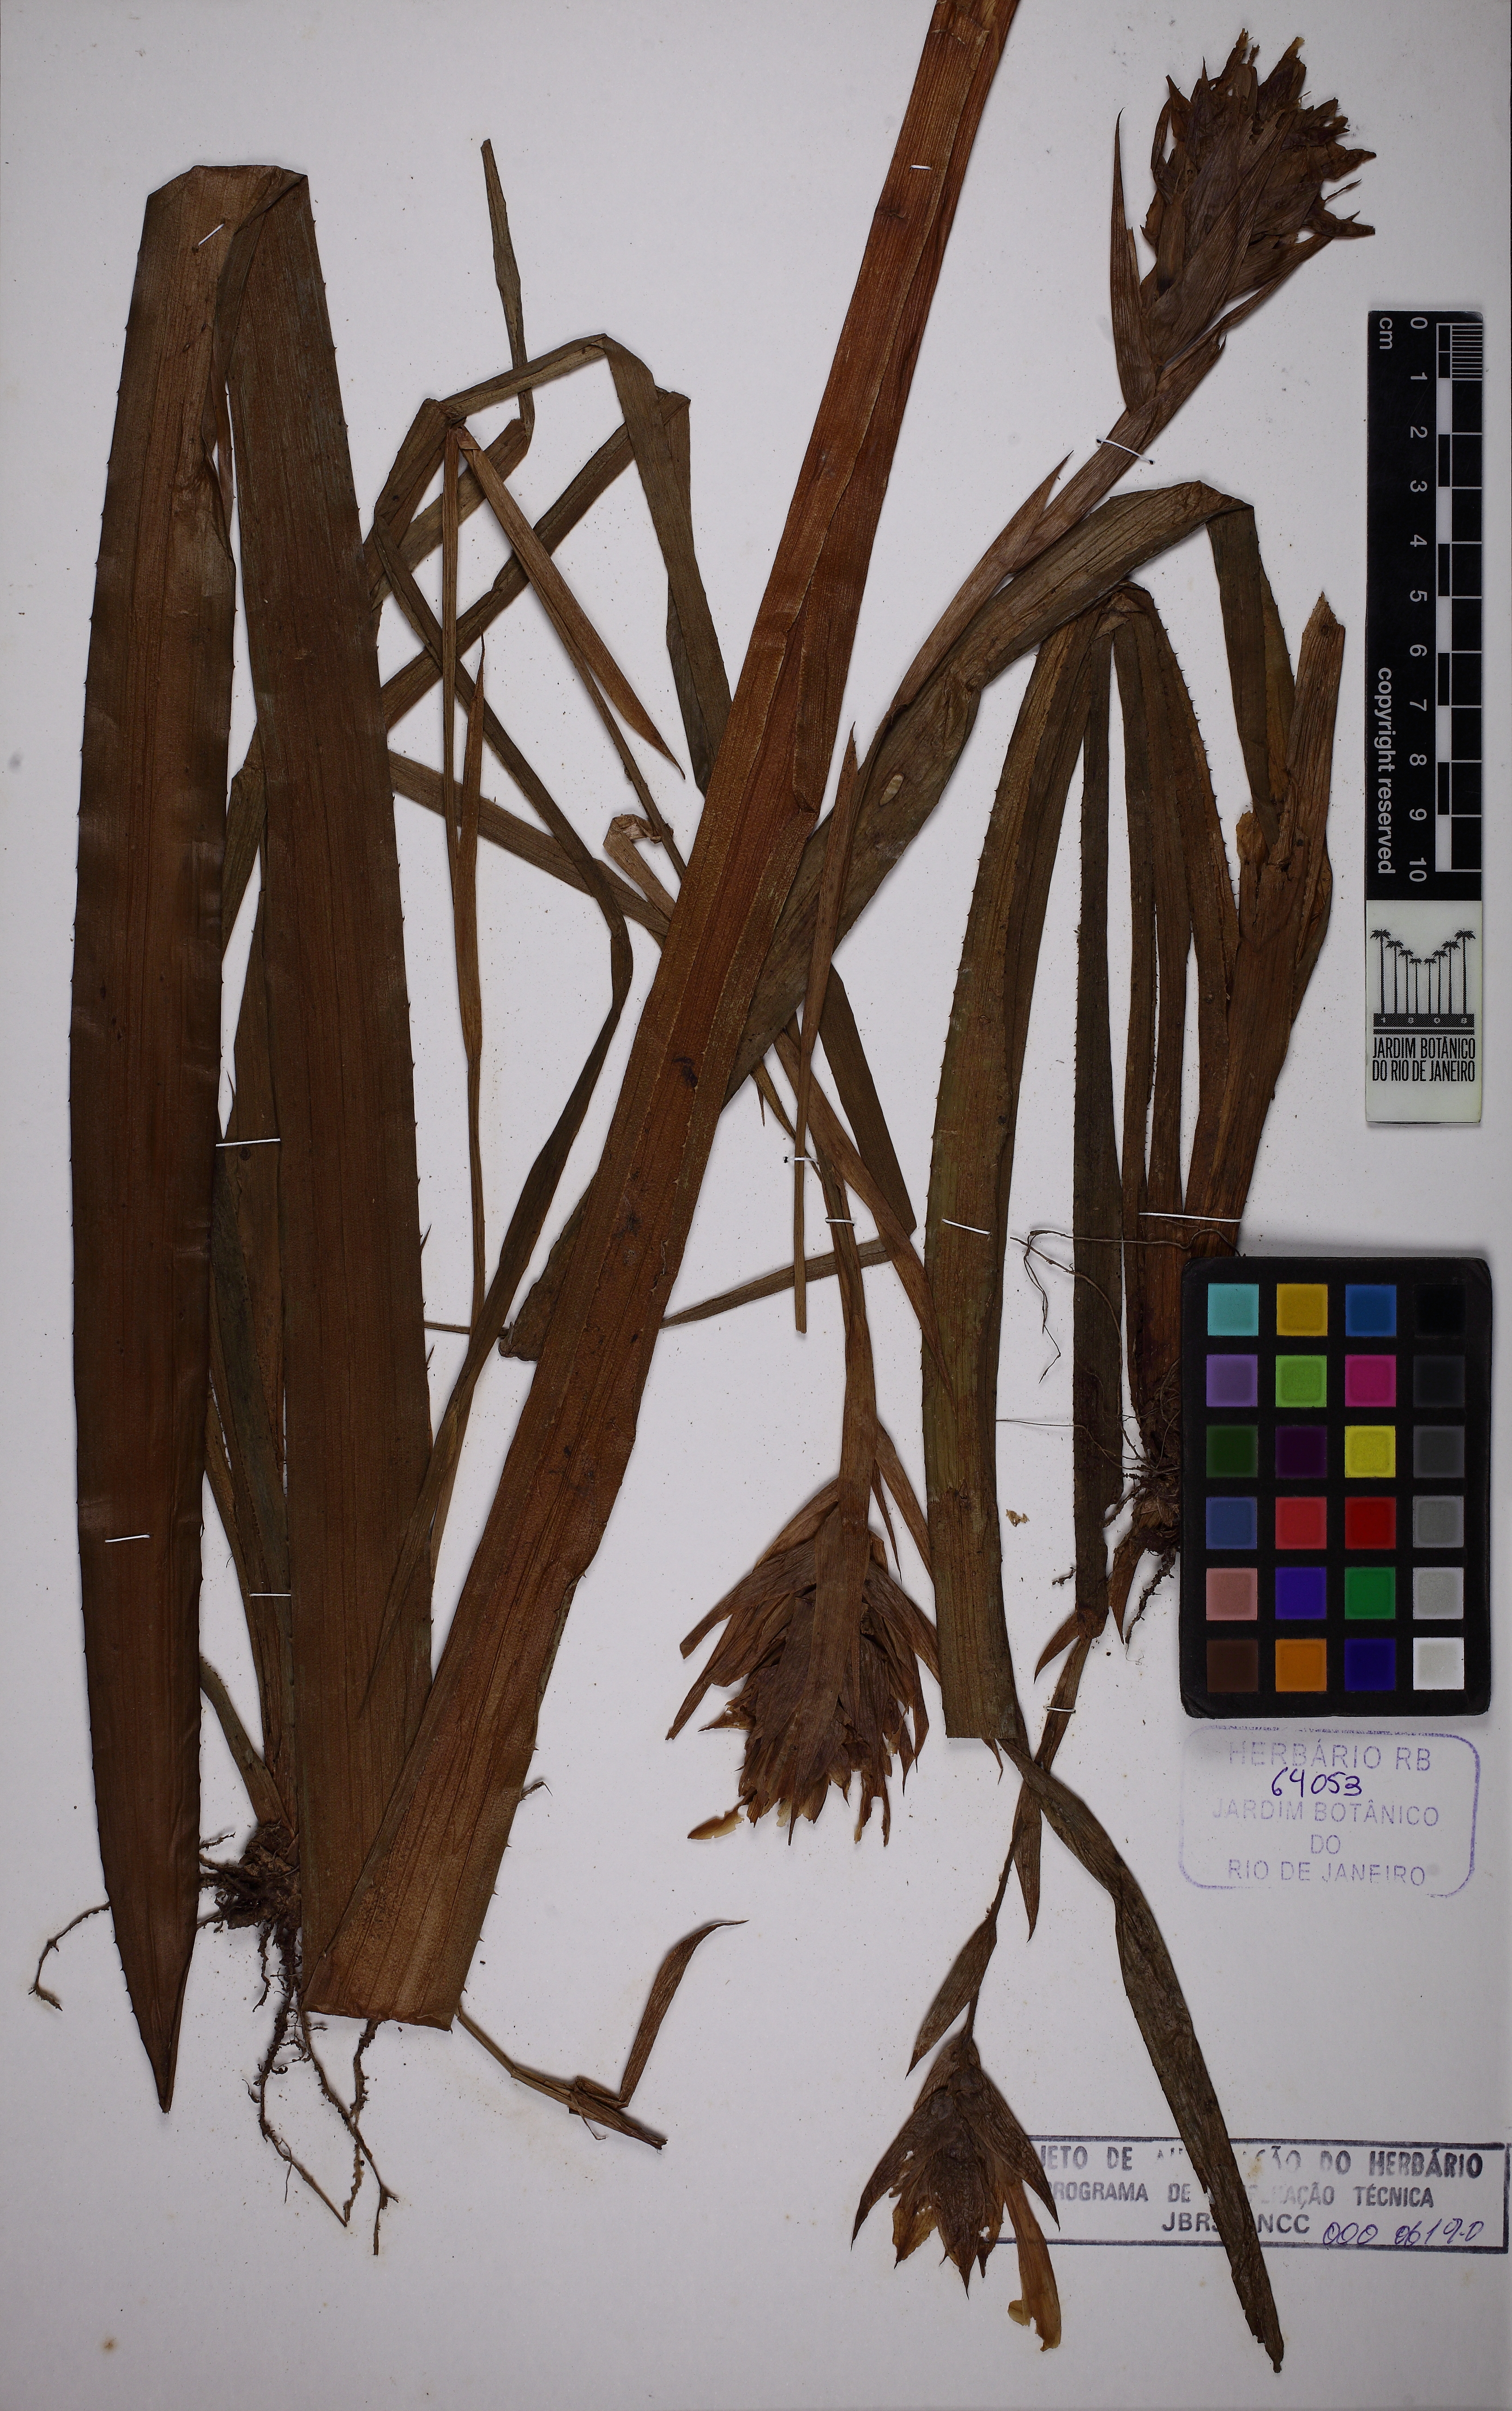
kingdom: Plantae
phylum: Tracheophyta
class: Liliopsida
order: Poales
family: Bromeliaceae
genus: Quesnelia
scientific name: Quesnelia kautskyi
